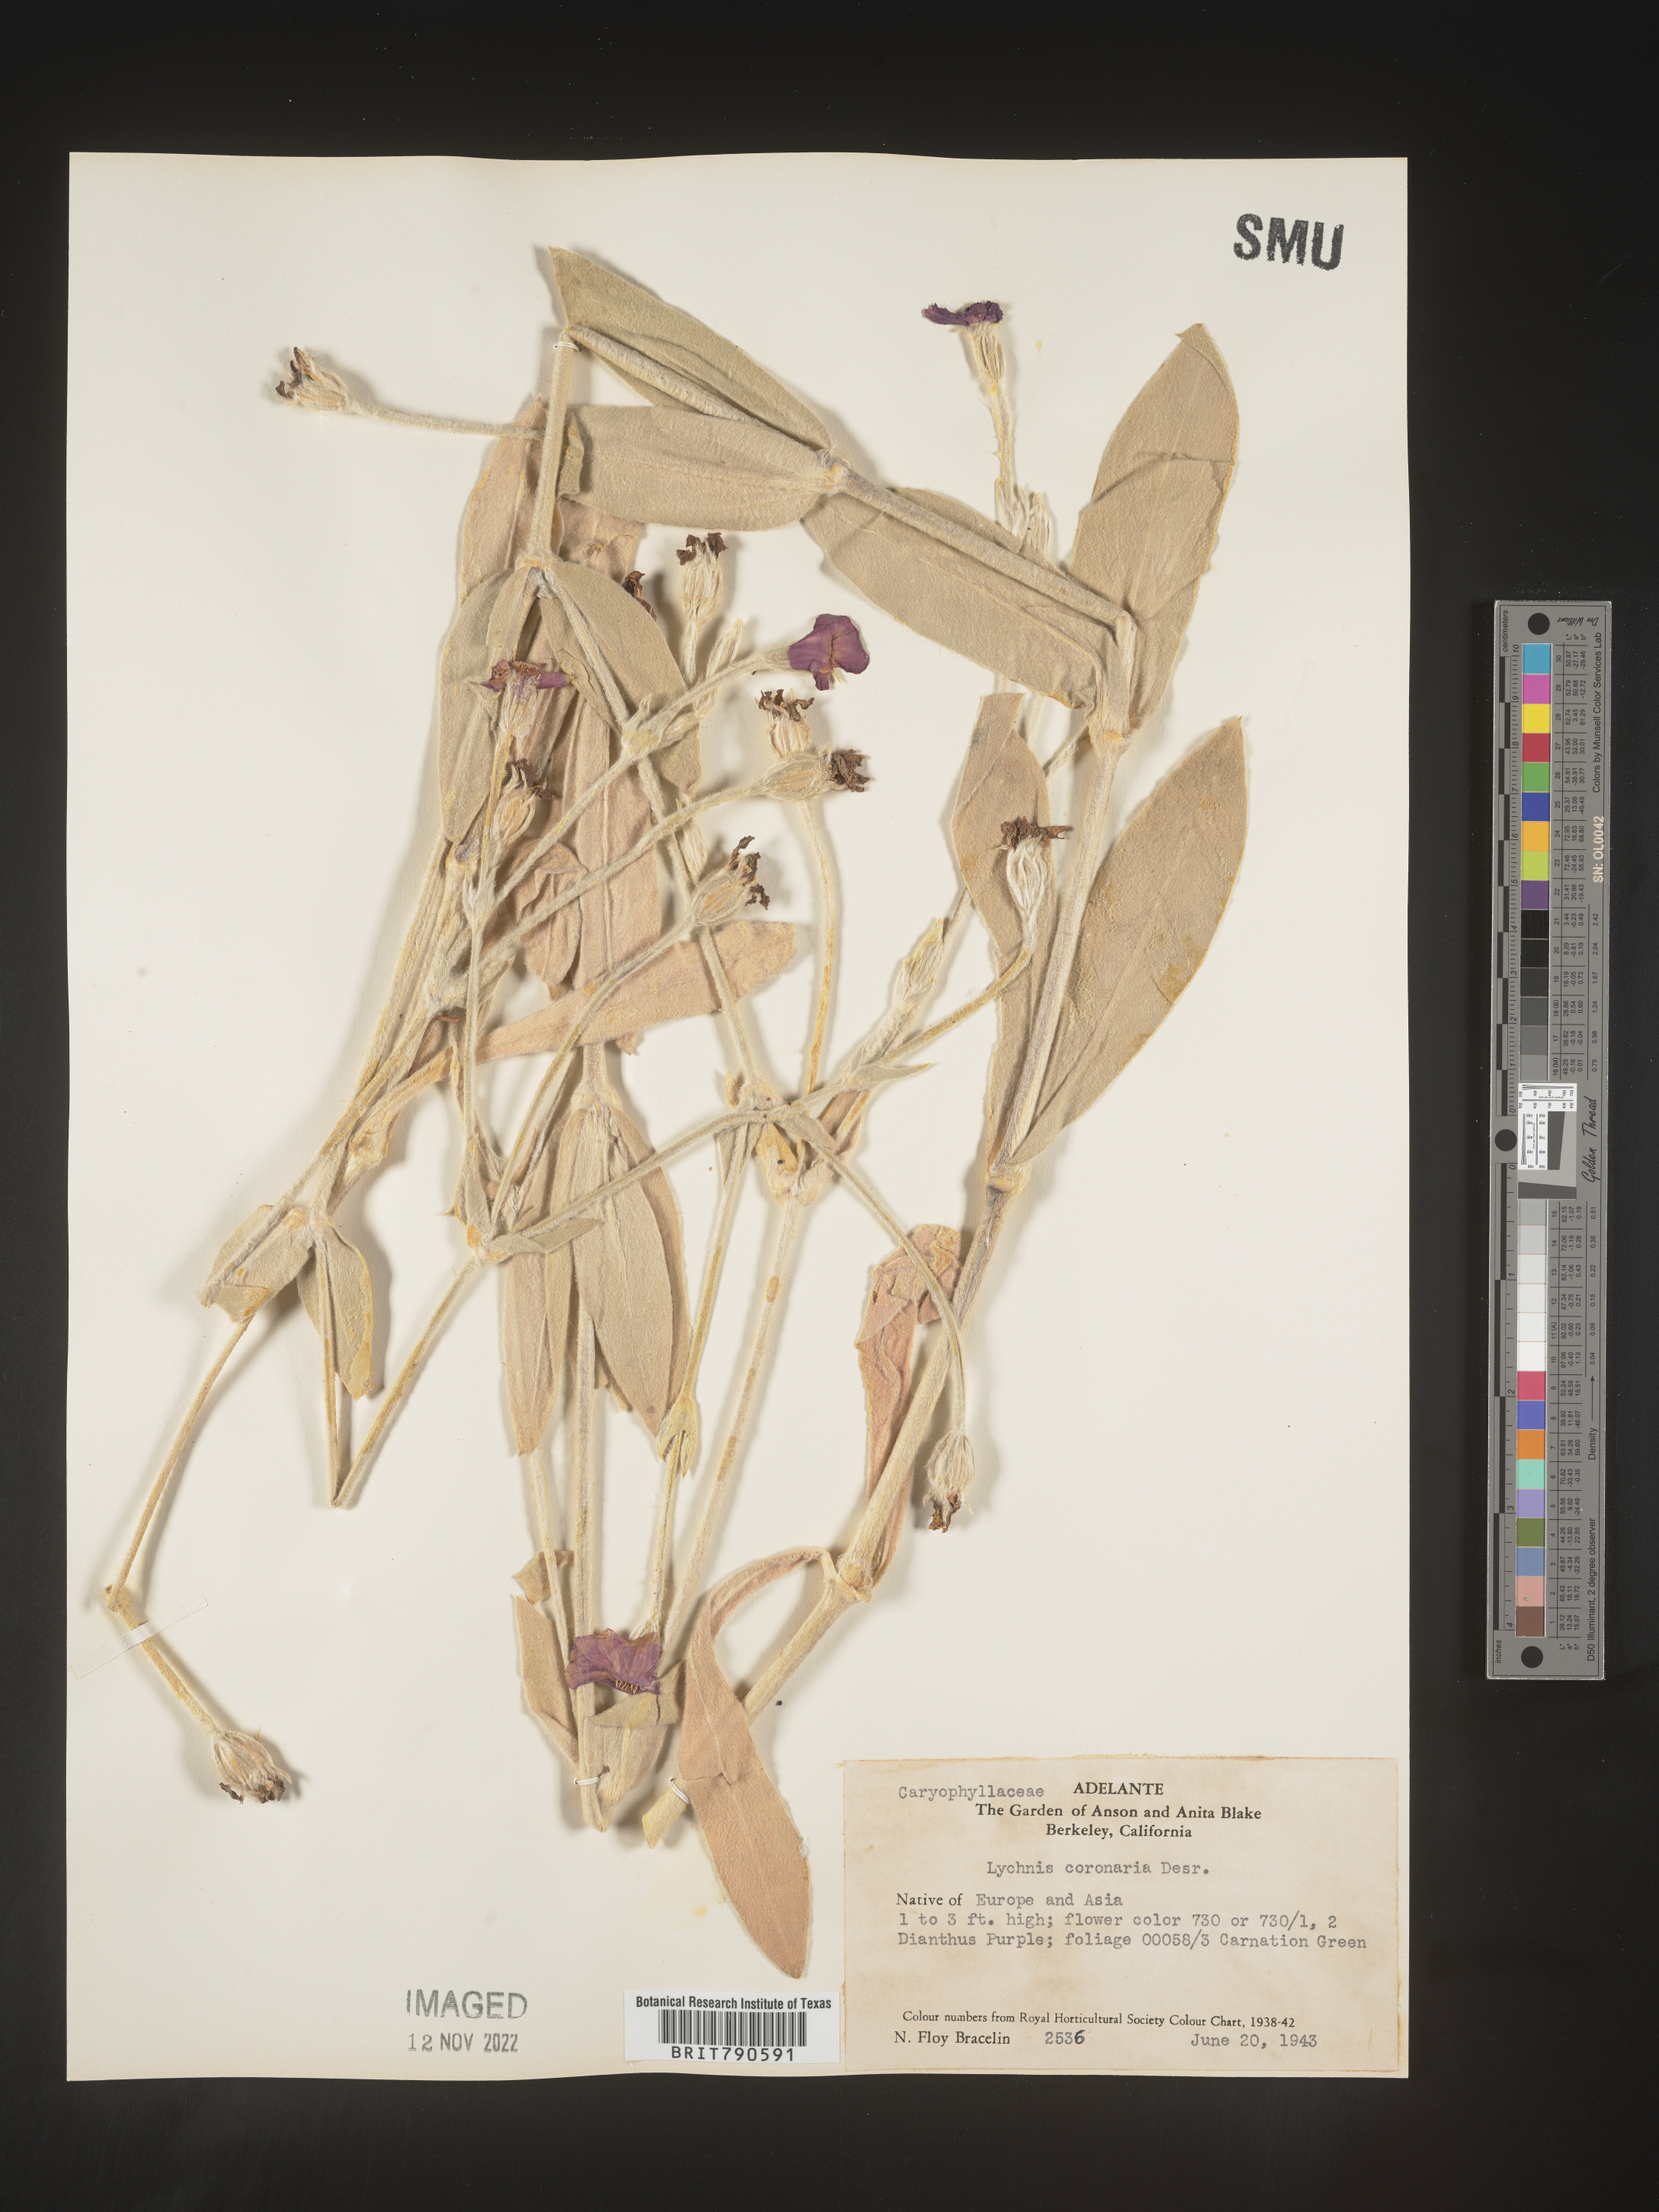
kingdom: Plantae
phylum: Tracheophyta
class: Magnoliopsida
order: Caryophyllales
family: Caryophyllaceae
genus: Silene
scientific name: Silene
